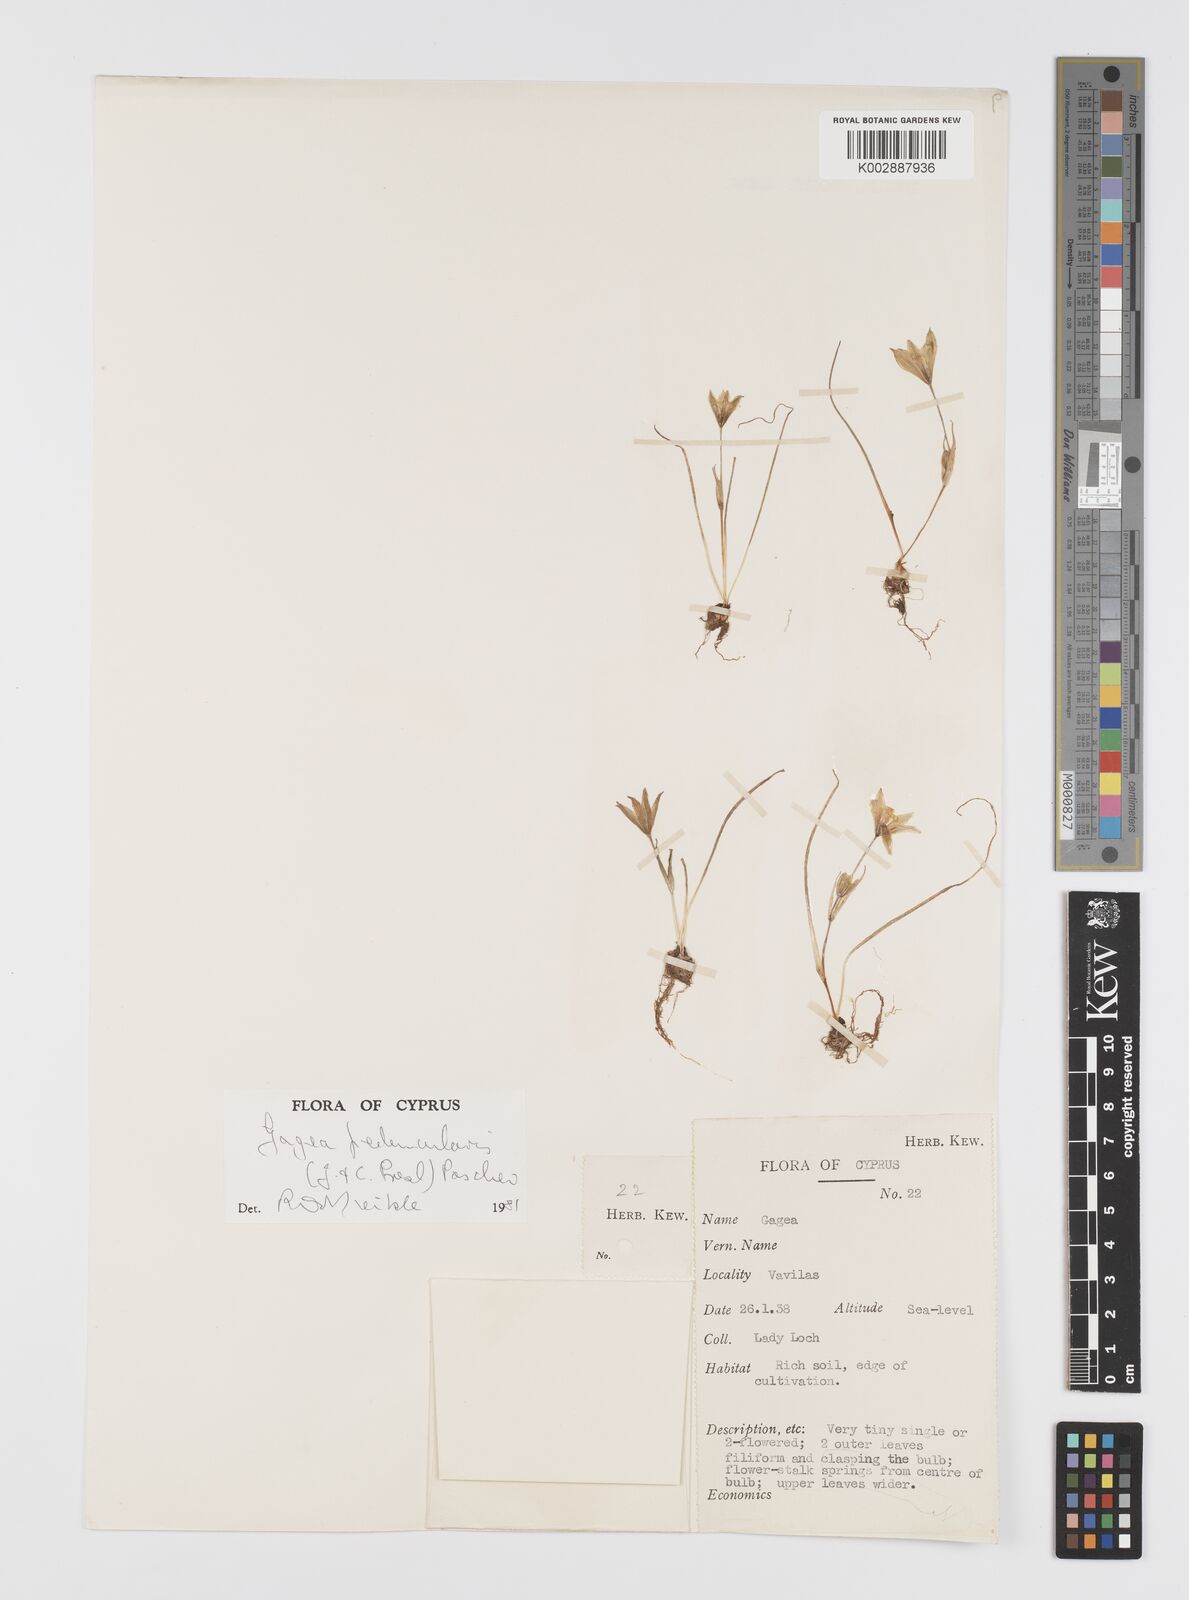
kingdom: Plantae
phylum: Tracheophyta
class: Liliopsida
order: Liliales
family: Liliaceae
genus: Gagea
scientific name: Gagea peduncularis
